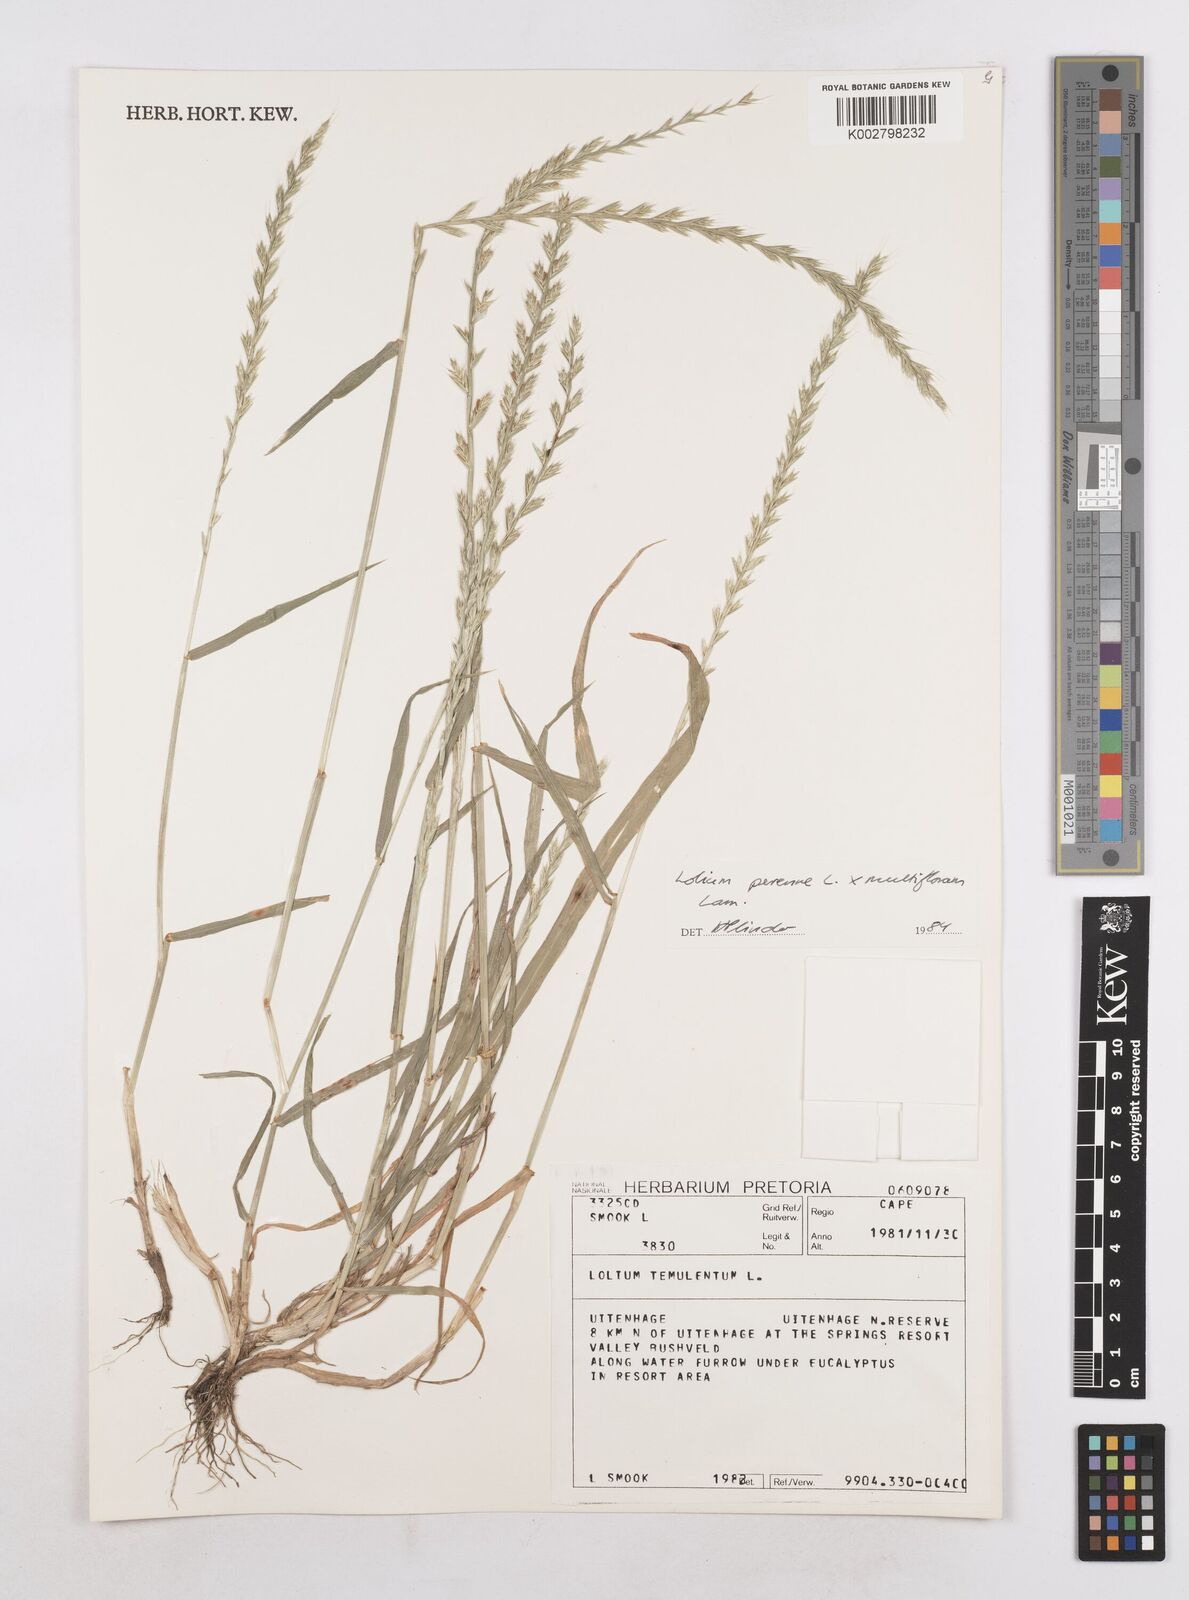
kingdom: Plantae
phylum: Tracheophyta
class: Liliopsida
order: Poales
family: Poaceae
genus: Lolium
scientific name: Lolium multiflorum
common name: Annual ryegrass
